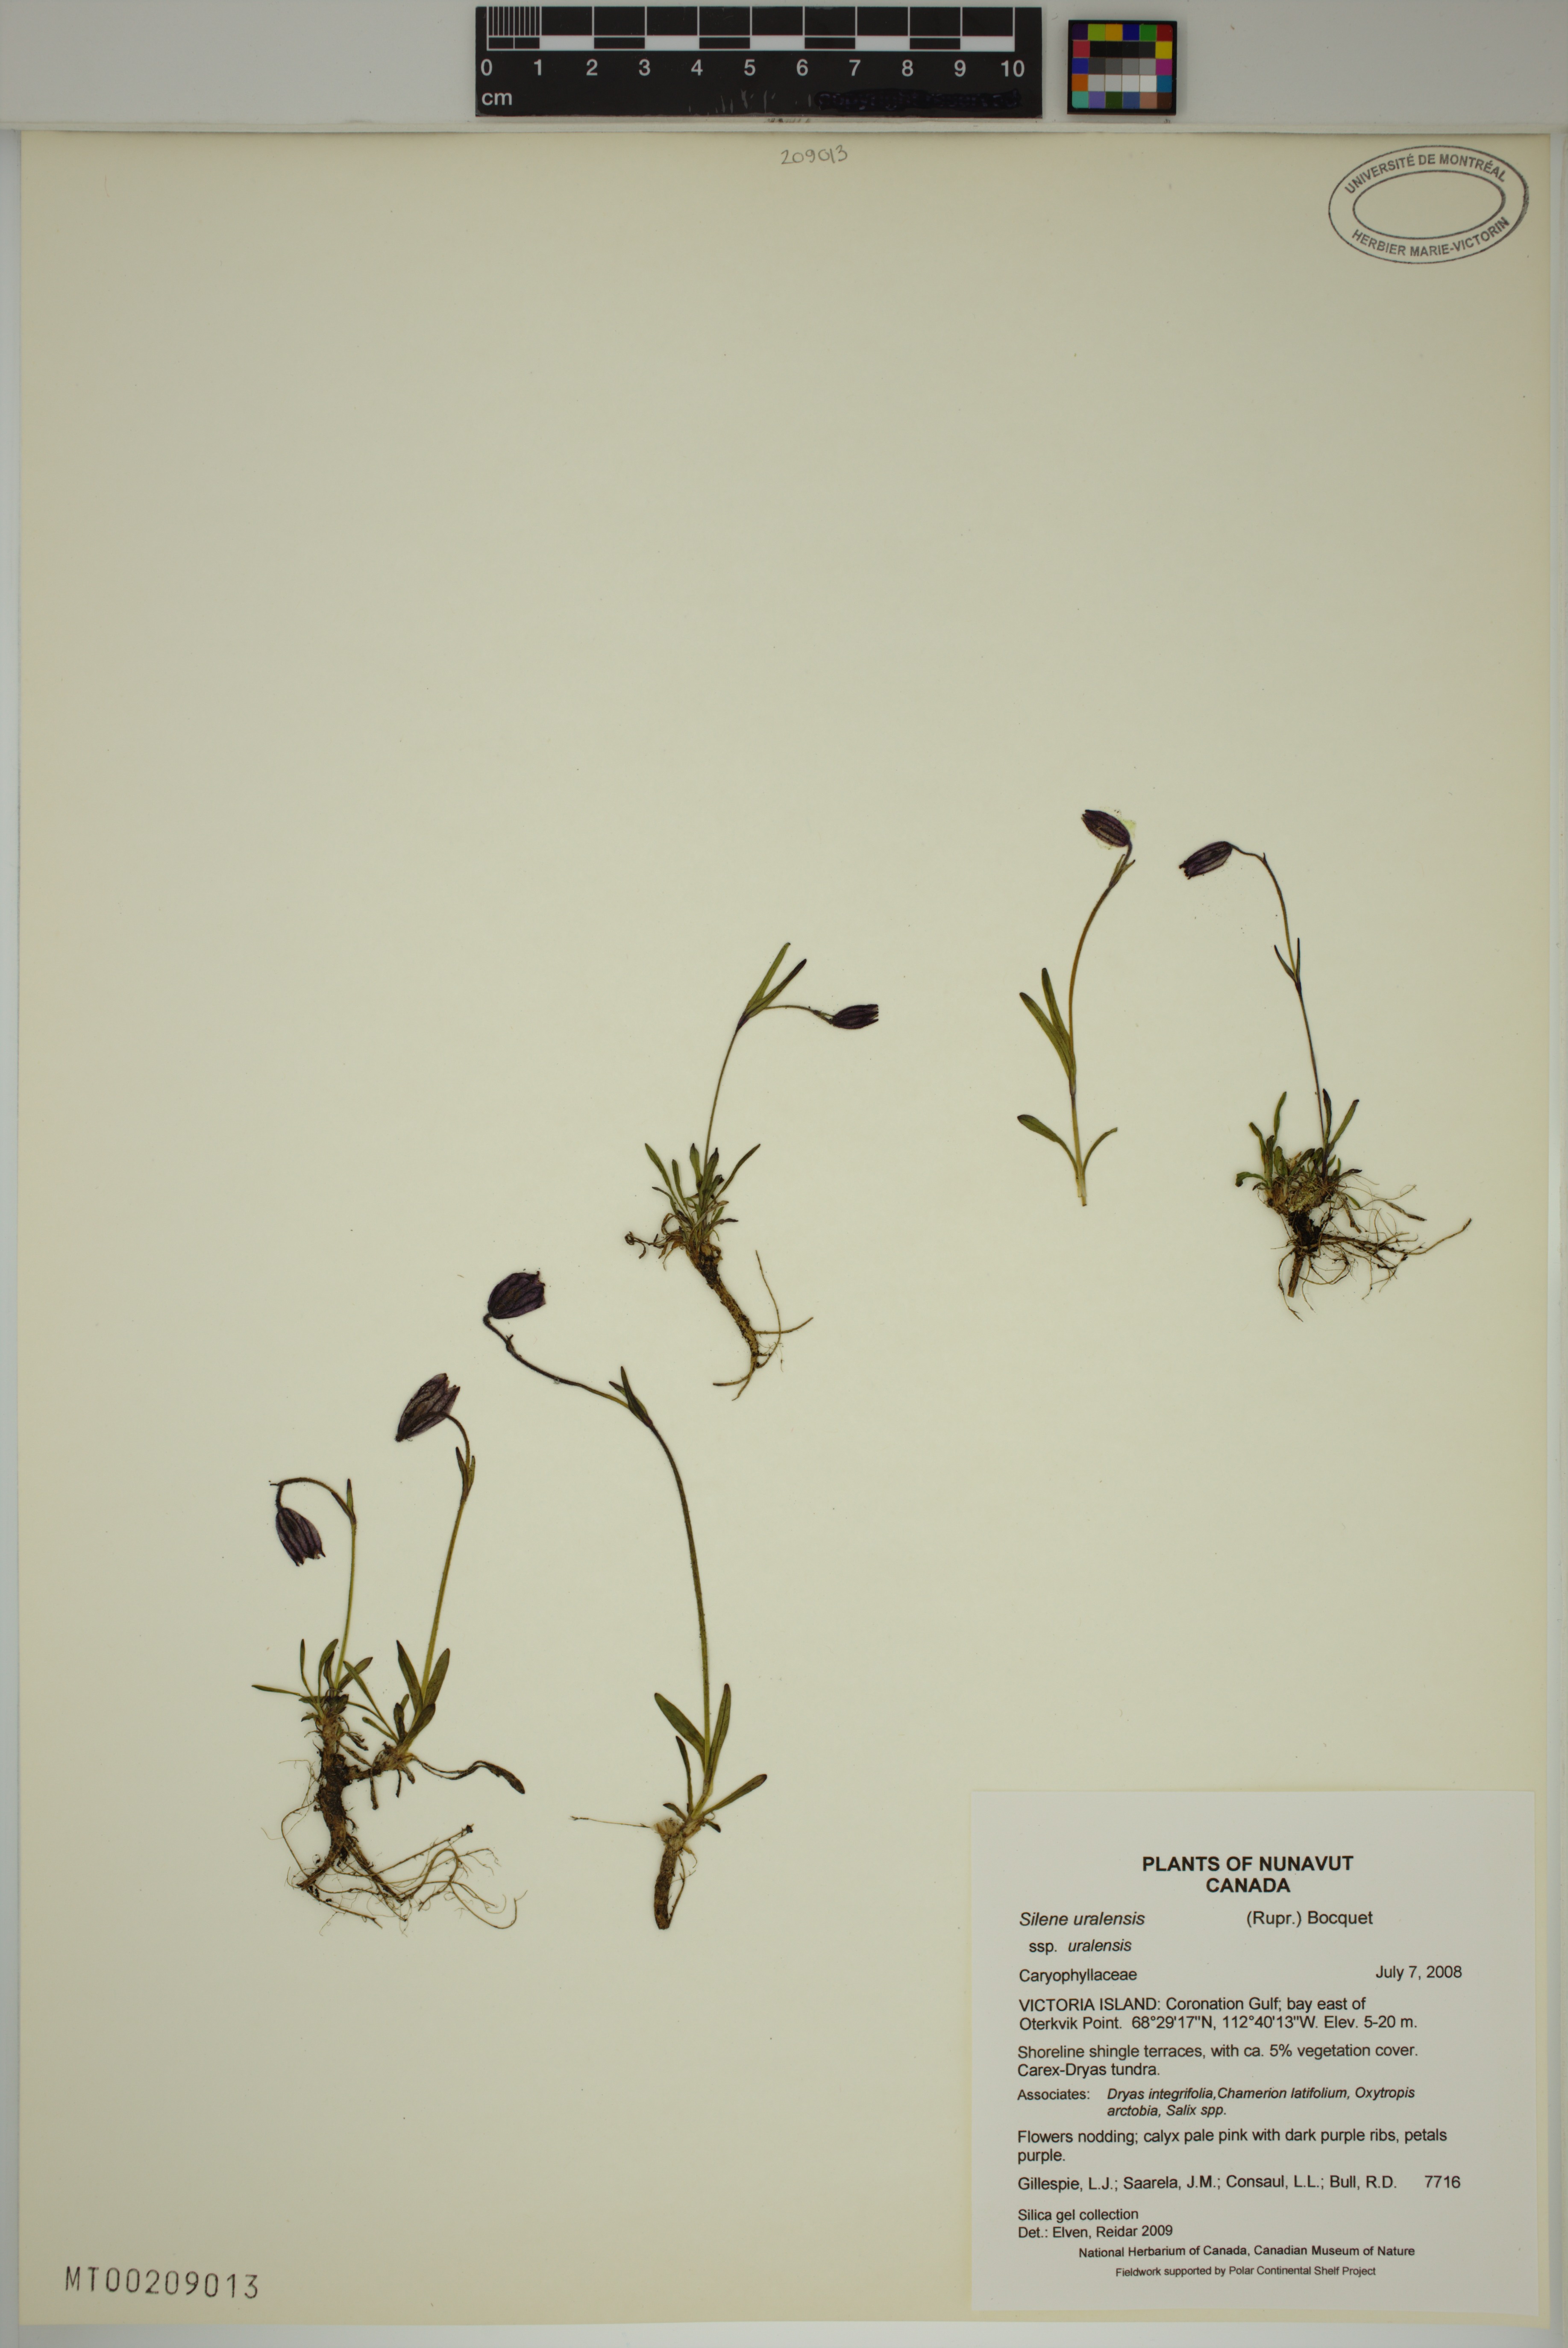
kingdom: Plantae
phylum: Tracheophyta
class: Magnoliopsida
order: Caryophyllales
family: Caryophyllaceae
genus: Silene
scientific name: Silene uralensis
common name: Nodding campion
